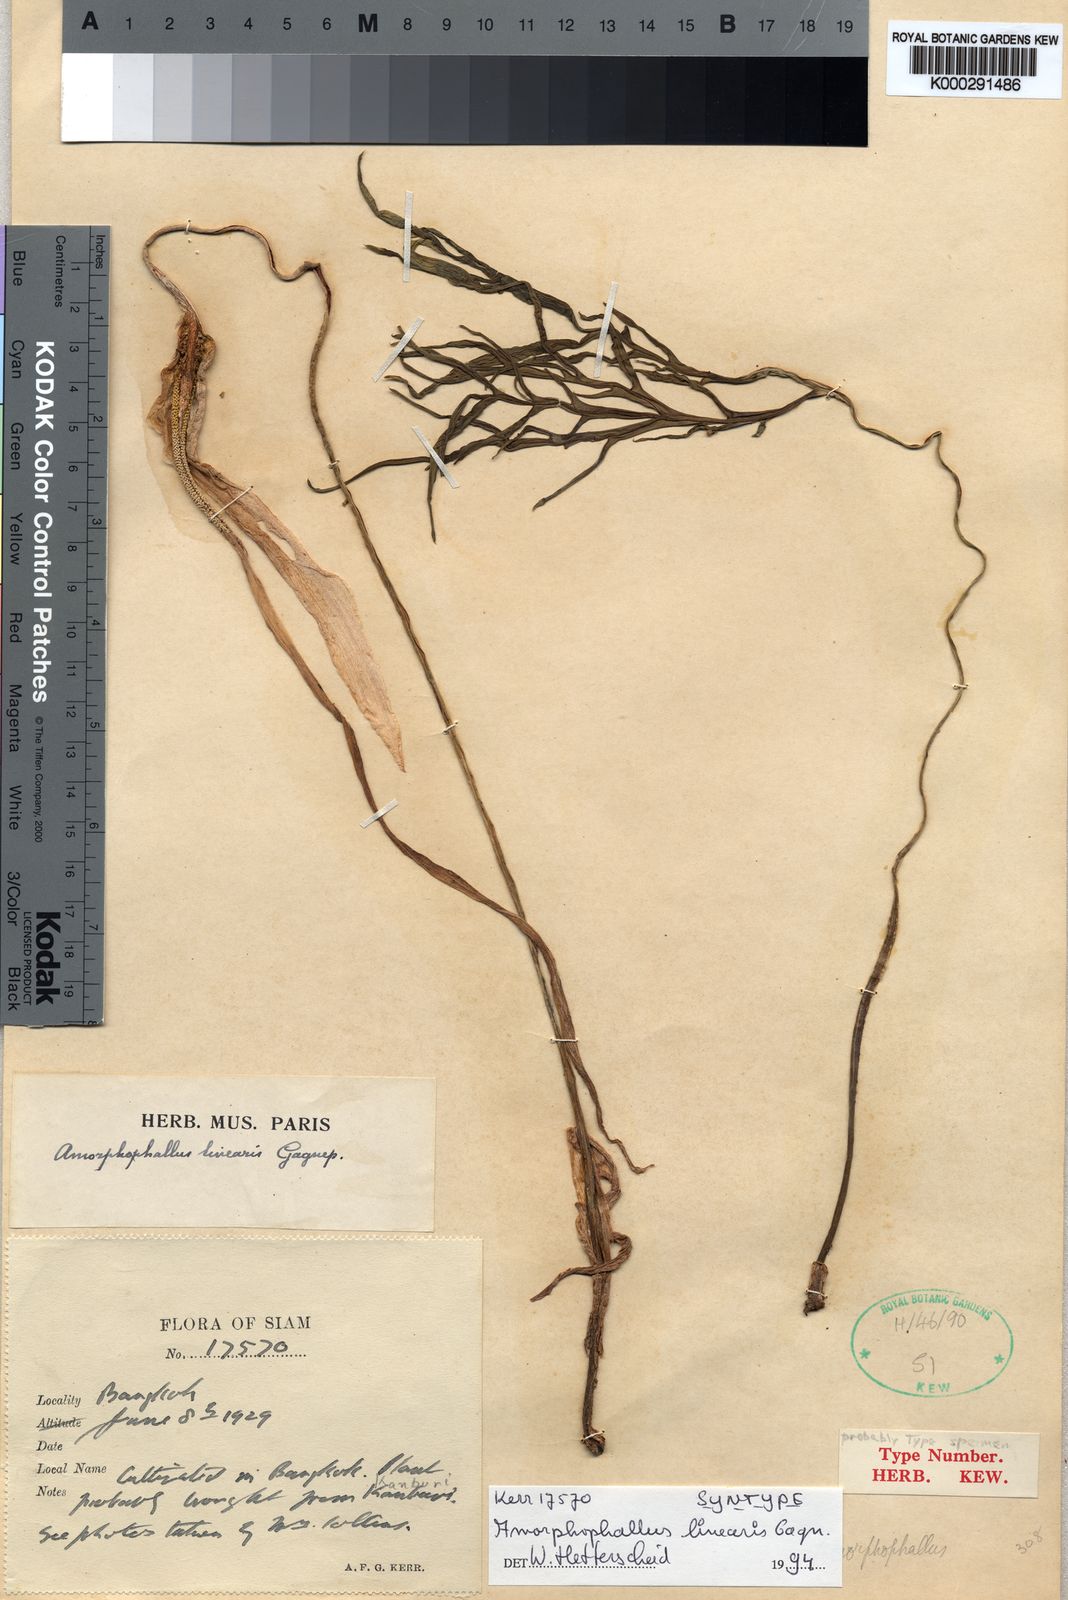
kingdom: Plantae
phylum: Tracheophyta
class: Liliopsida
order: Alismatales
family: Araceae
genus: Amorphophallus
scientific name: Amorphophallus linearis
